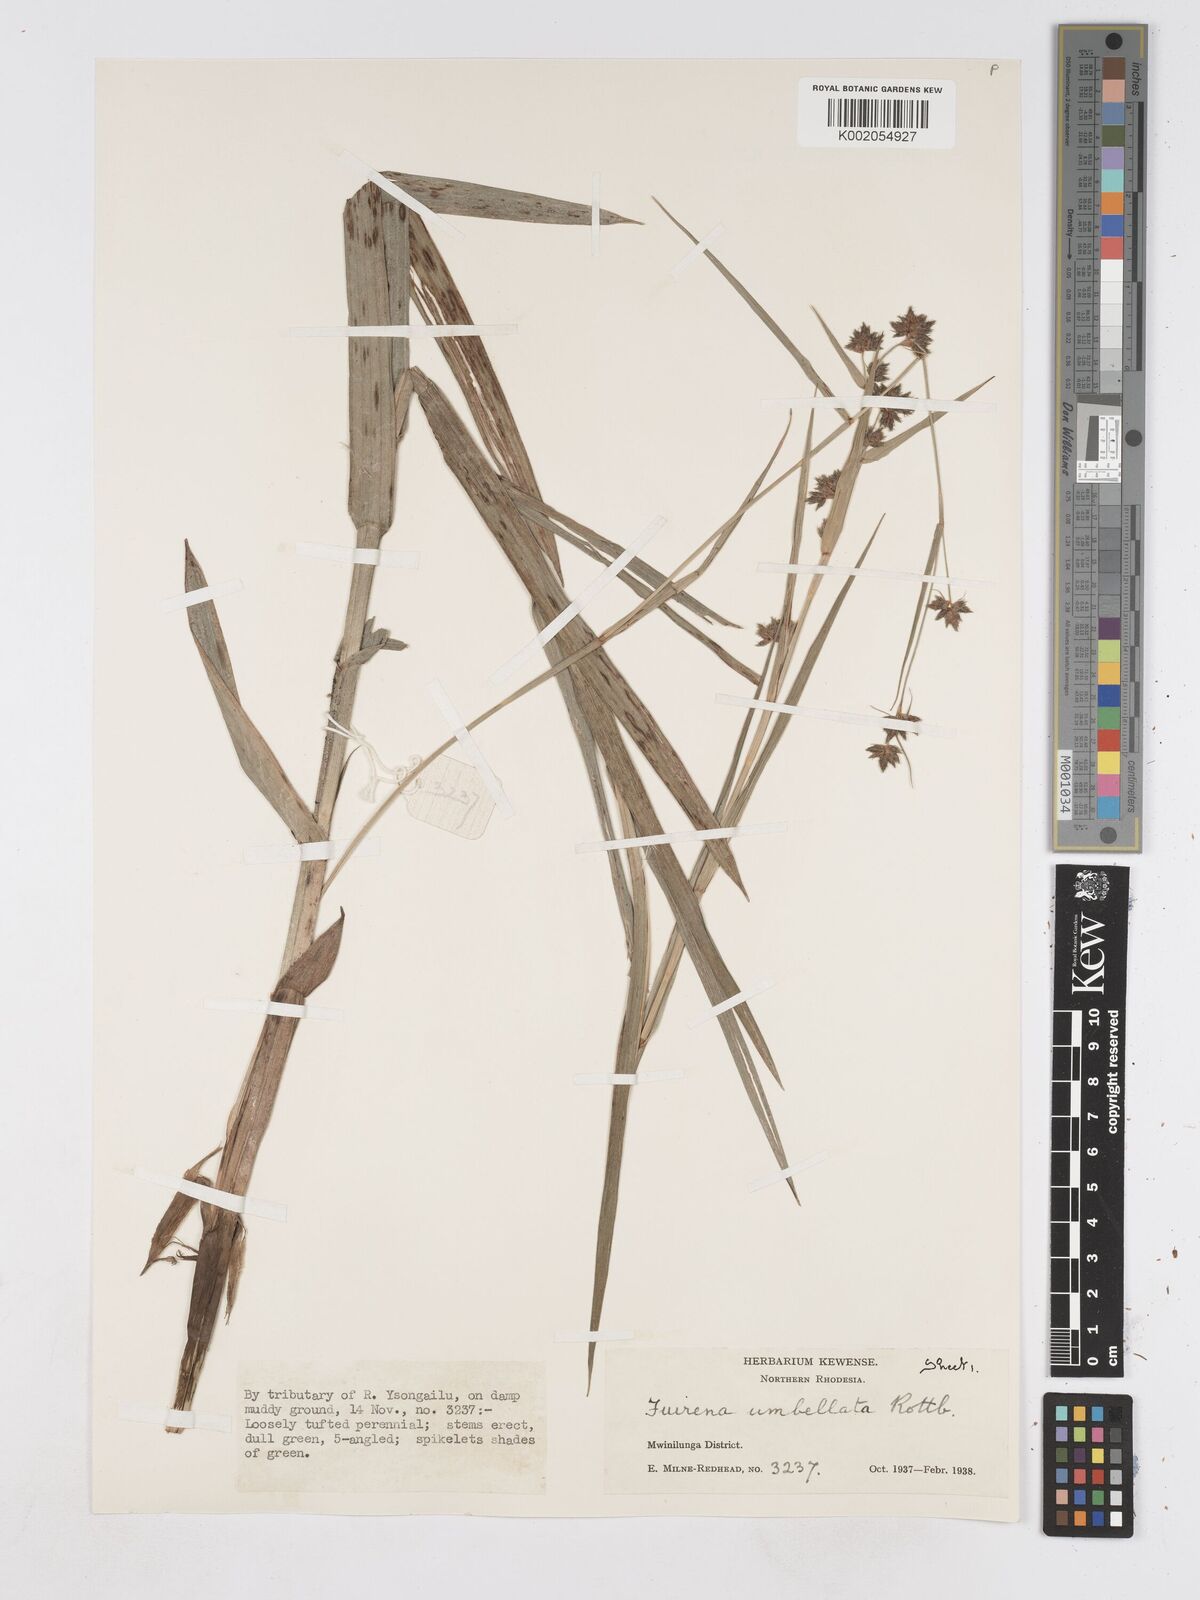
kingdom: Plantae
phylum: Tracheophyta
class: Liliopsida
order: Poales
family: Cyperaceae
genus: Fuirena
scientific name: Fuirena umbellata
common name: Yefen
